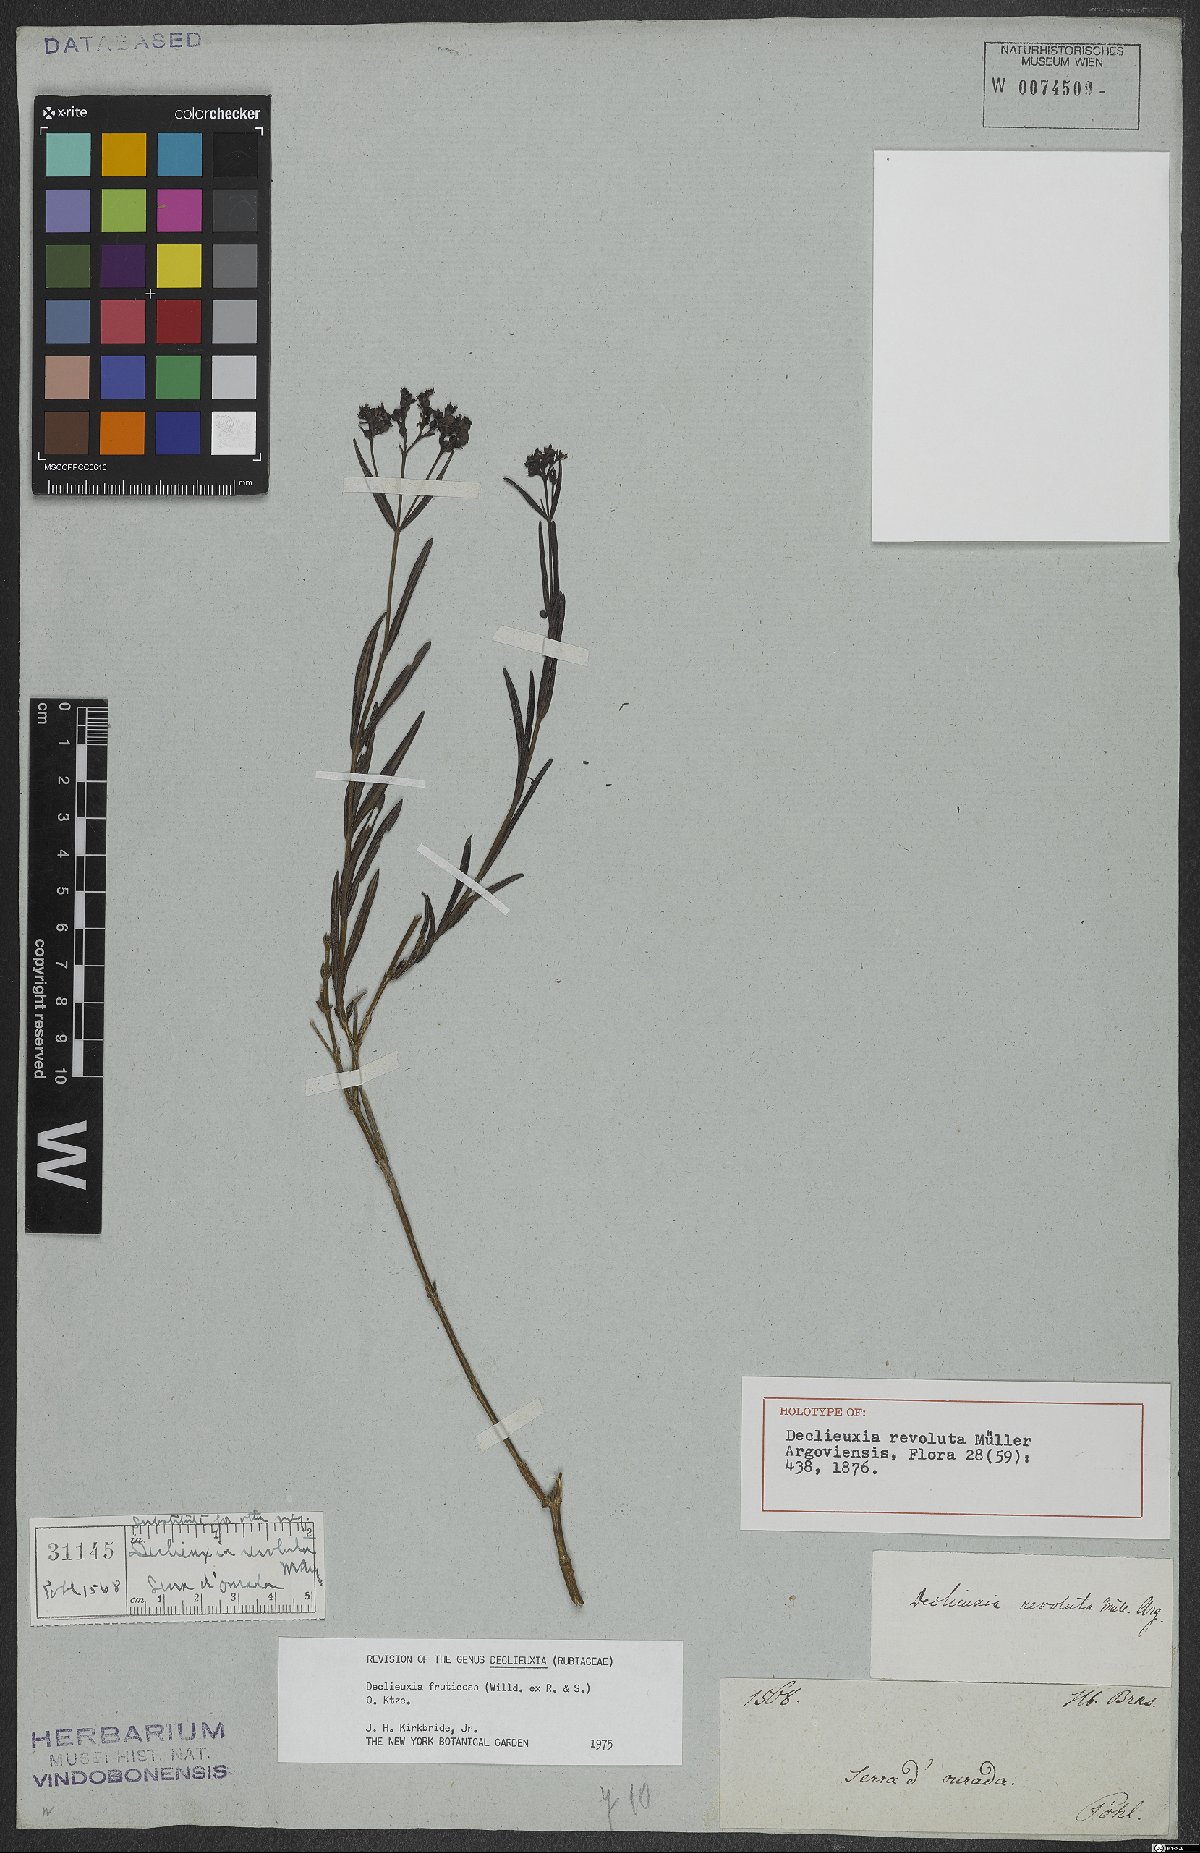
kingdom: Plantae
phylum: Tracheophyta
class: Magnoliopsida
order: Gentianales
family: Rubiaceae
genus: Declieuxia
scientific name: Declieuxia fruticosa
